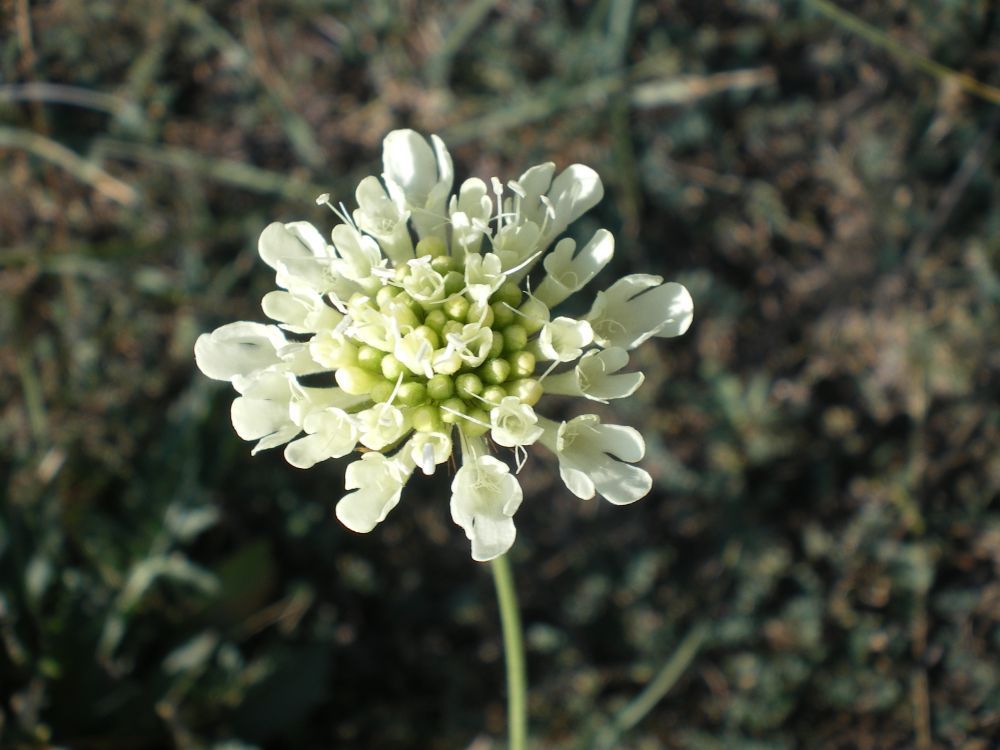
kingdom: Plantae
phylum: Tracheophyta
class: Magnoliopsida
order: Dipsacales
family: Caprifoliaceae
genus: Scabiosa
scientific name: Scabiosa ochroleuca
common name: Cream pincushions
